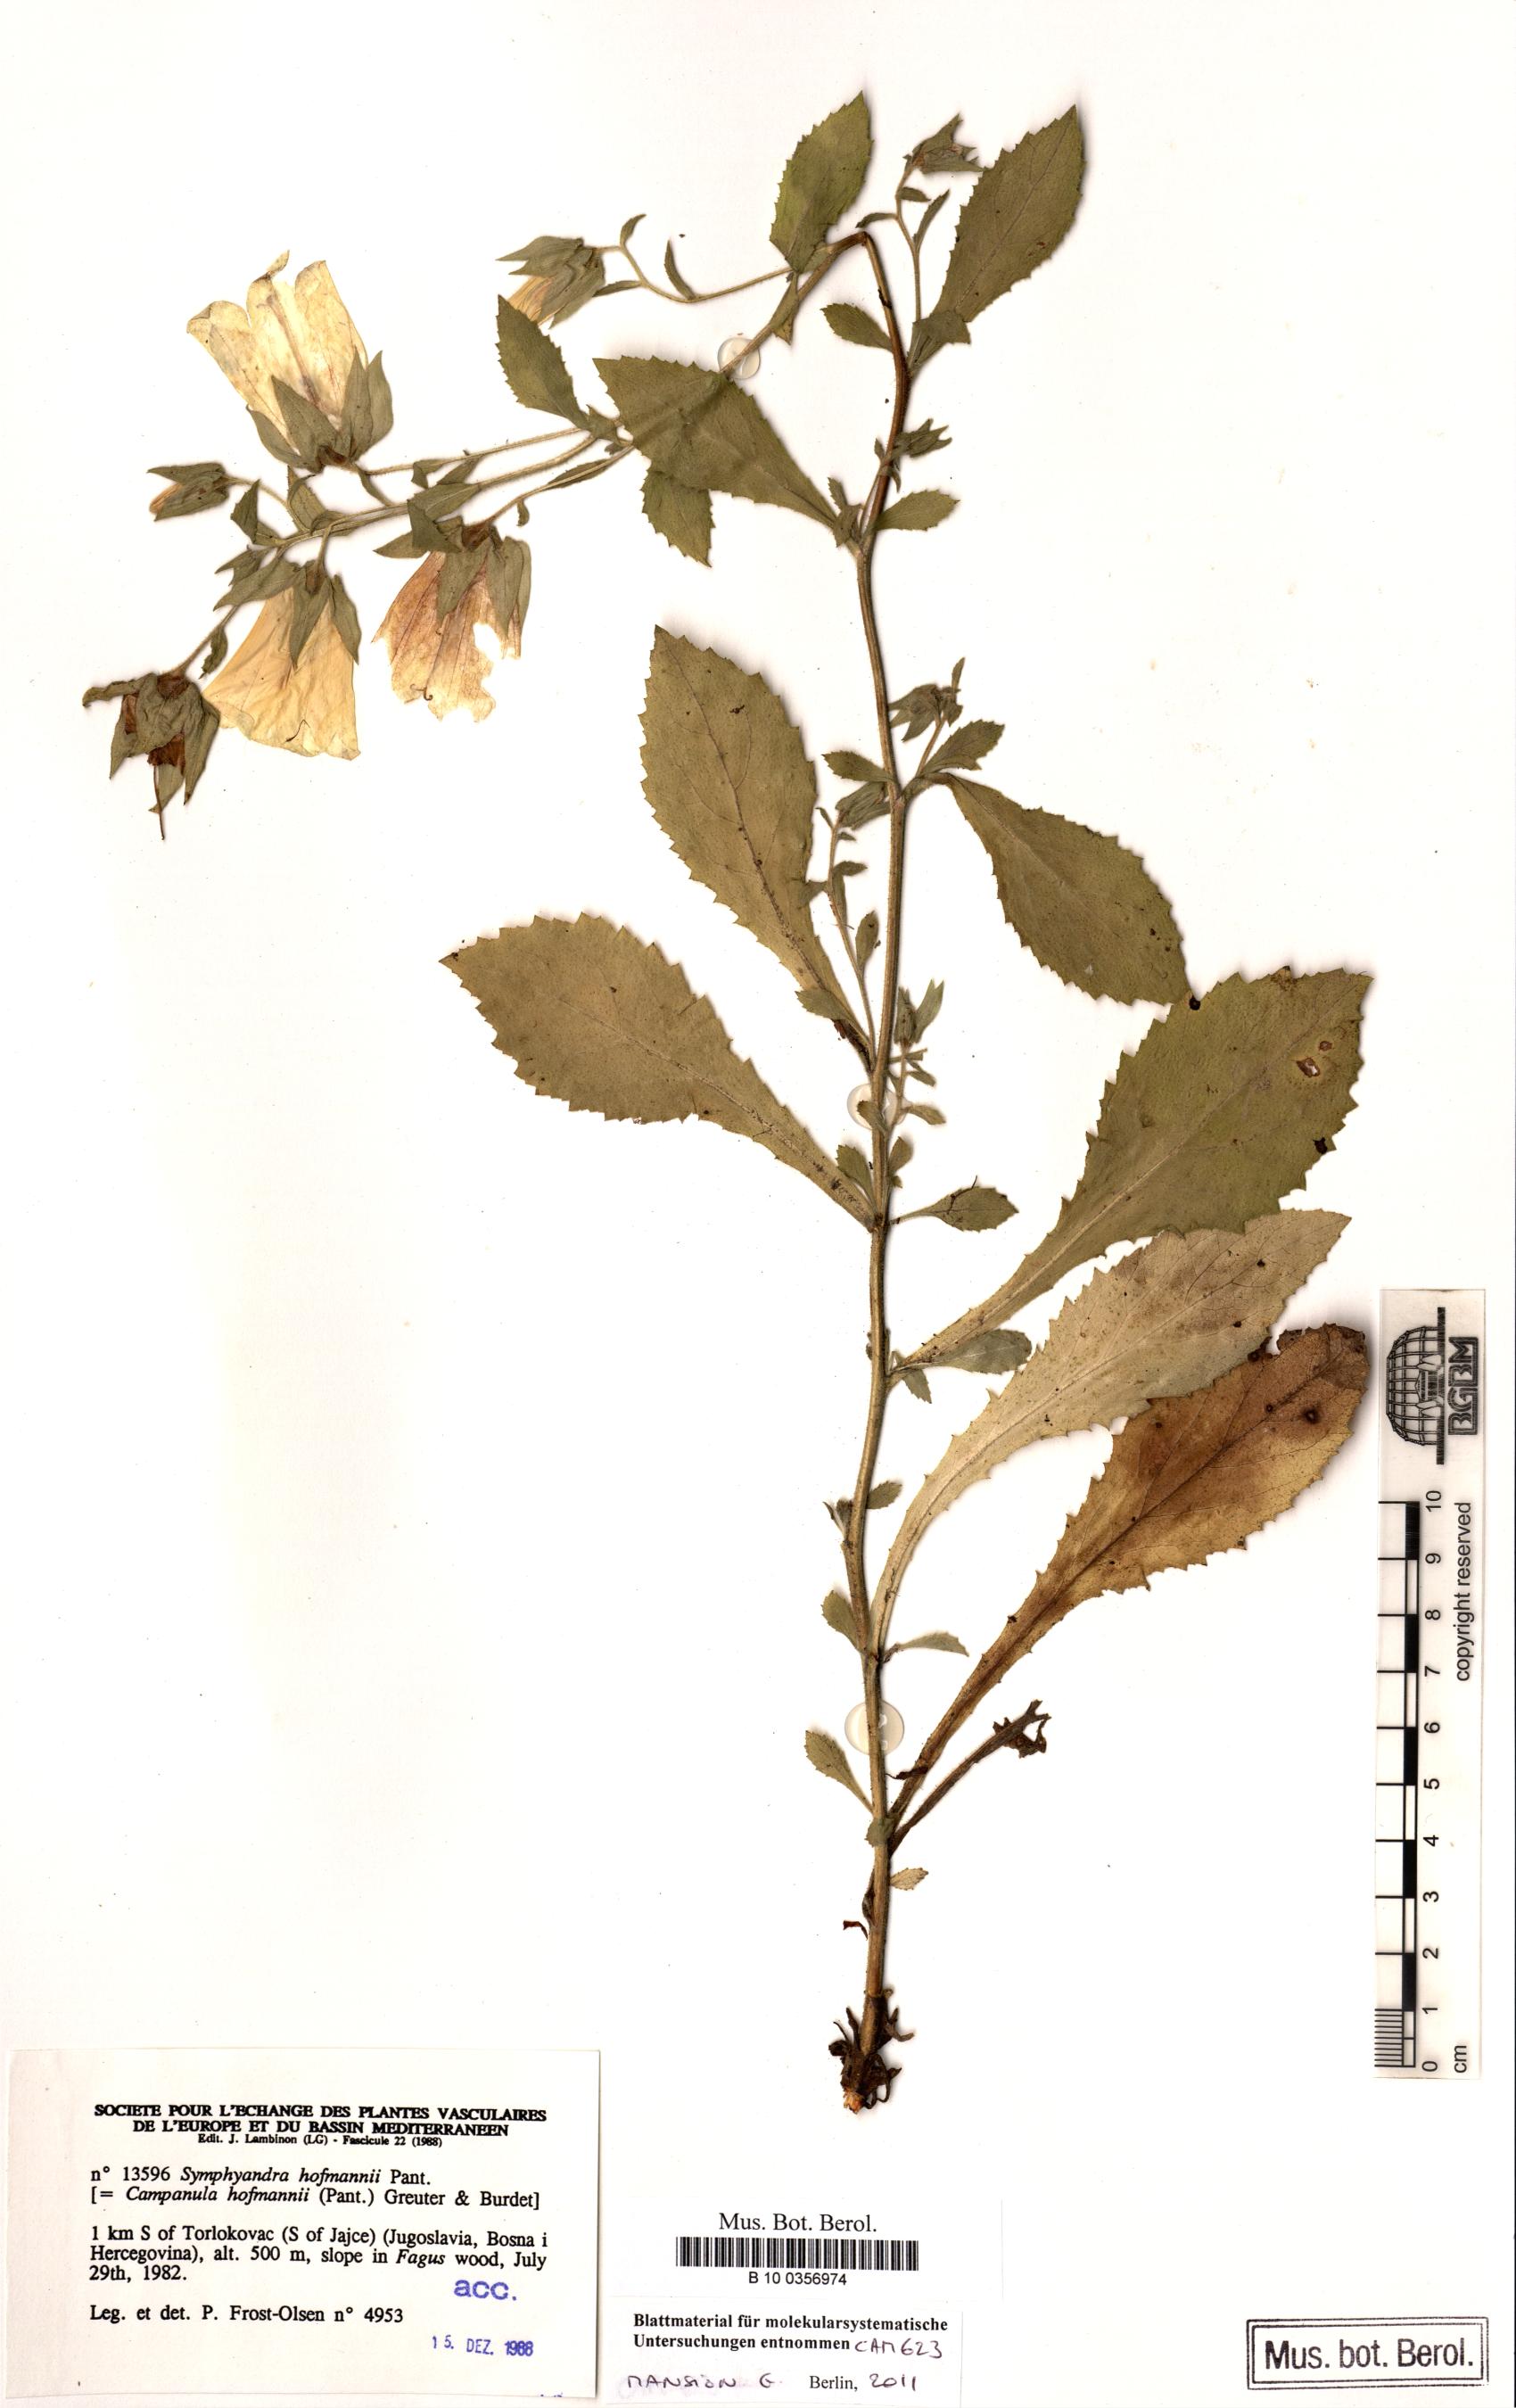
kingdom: Plantae
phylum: Tracheophyta
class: Magnoliopsida
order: Asterales
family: Campanulaceae
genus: Campanula
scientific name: Campanula hofmannii
